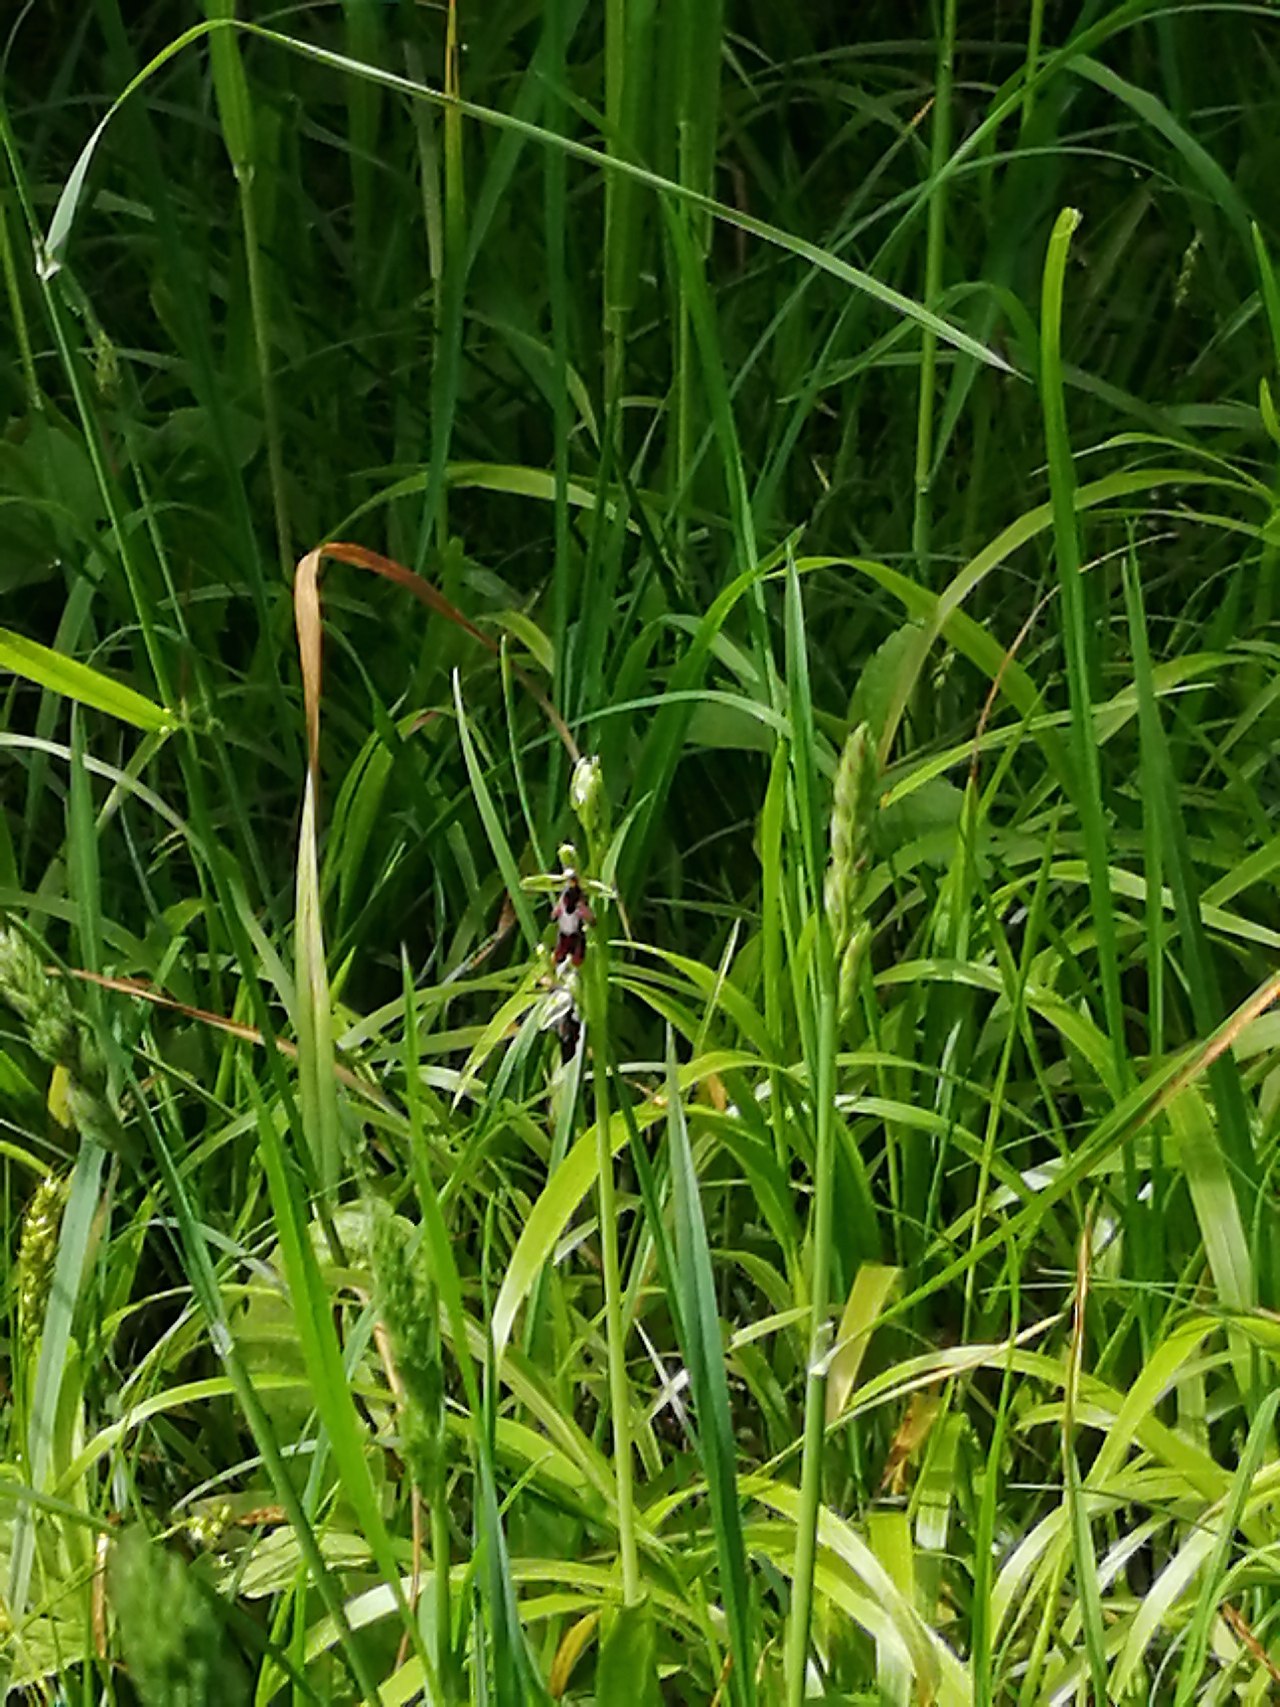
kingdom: Plantae
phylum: Tracheophyta
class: Liliopsida
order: Asparagales
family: Orchidaceae
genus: Ophrys
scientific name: Ophrys insectifera
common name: Flueblomst
